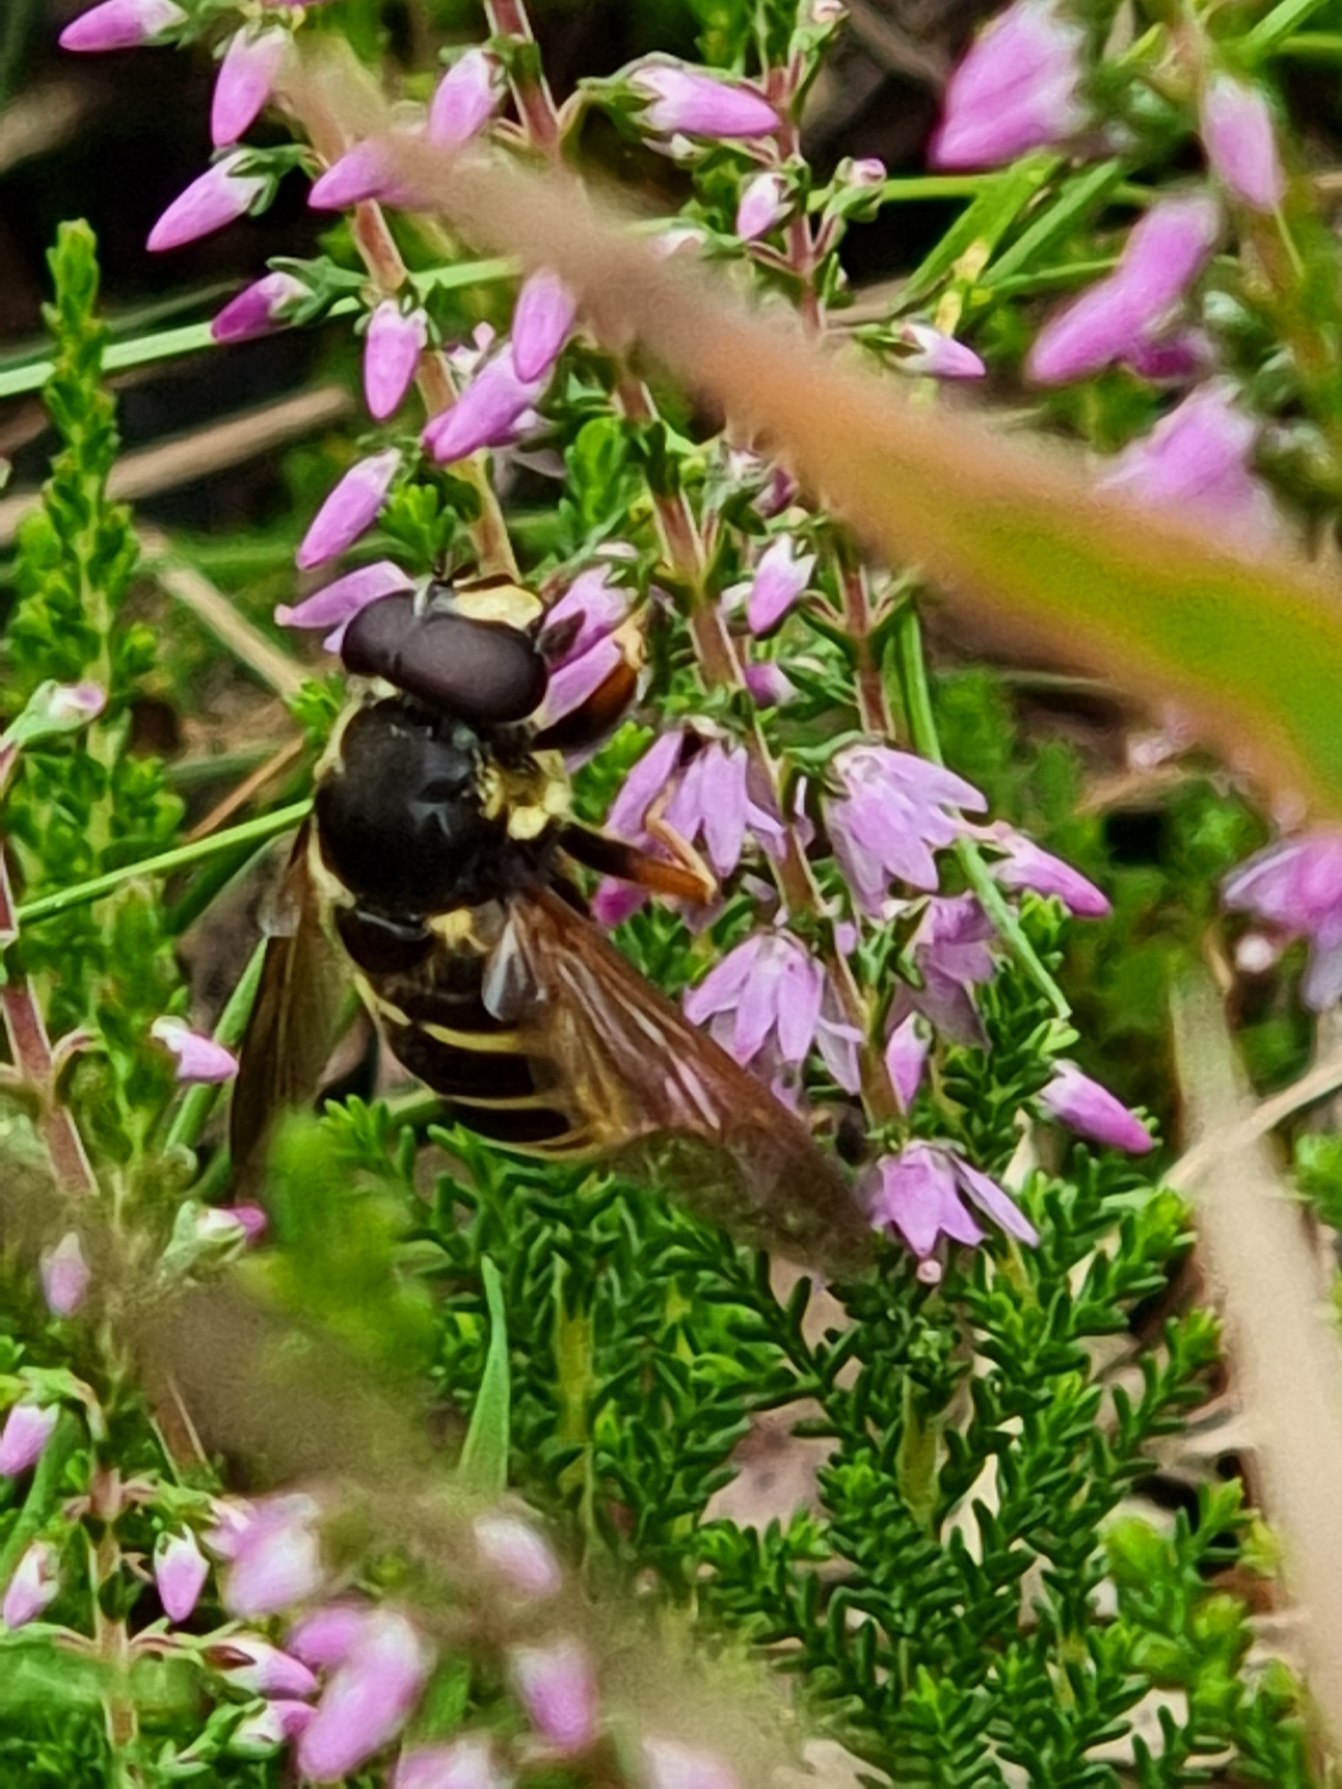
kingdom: Animalia
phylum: Arthropoda
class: Insecta
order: Diptera
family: Syrphidae
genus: Sericomyia
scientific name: Sericomyia silentis
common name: Tørve-silkesvirreflue
